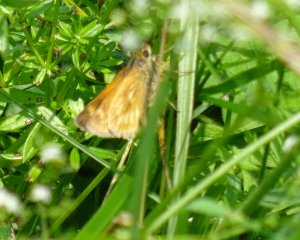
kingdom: Animalia
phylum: Arthropoda
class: Insecta
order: Lepidoptera
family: Hesperiidae
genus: Polites
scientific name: Polites
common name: Long Dash Skipper
